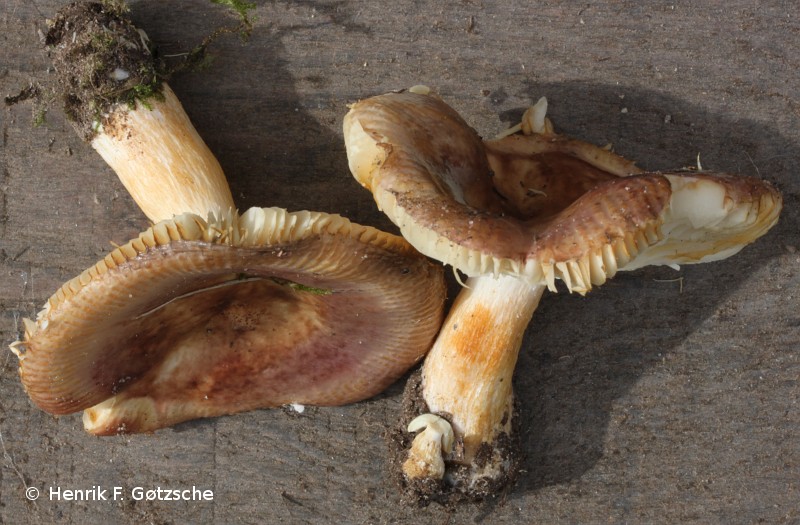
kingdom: Fungi
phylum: Basidiomycota
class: Agaricomycetes
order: Russulales
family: Russulaceae
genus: Russula
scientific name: Russula puellaris
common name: gulstokket skørhat
